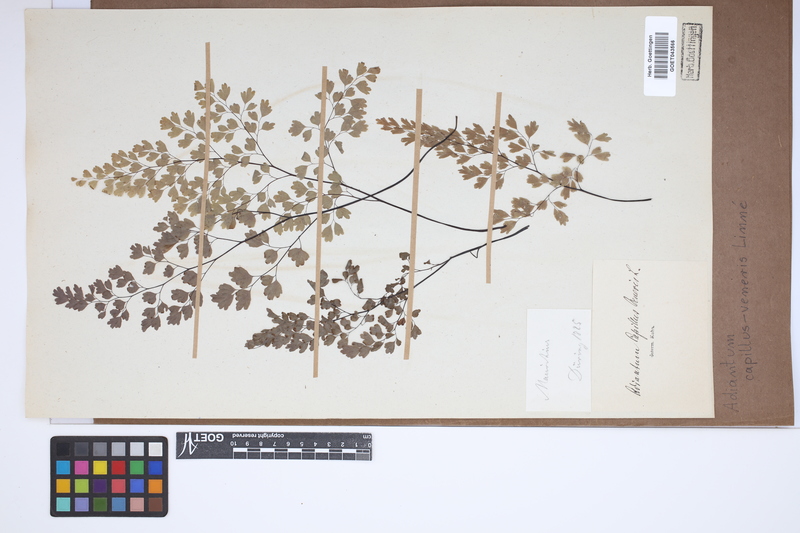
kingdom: Plantae
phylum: Tracheophyta
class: Polypodiopsida
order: Polypodiales
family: Pteridaceae
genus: Adiantum
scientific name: Adiantum capillus-veneris
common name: Maidenhair fern
